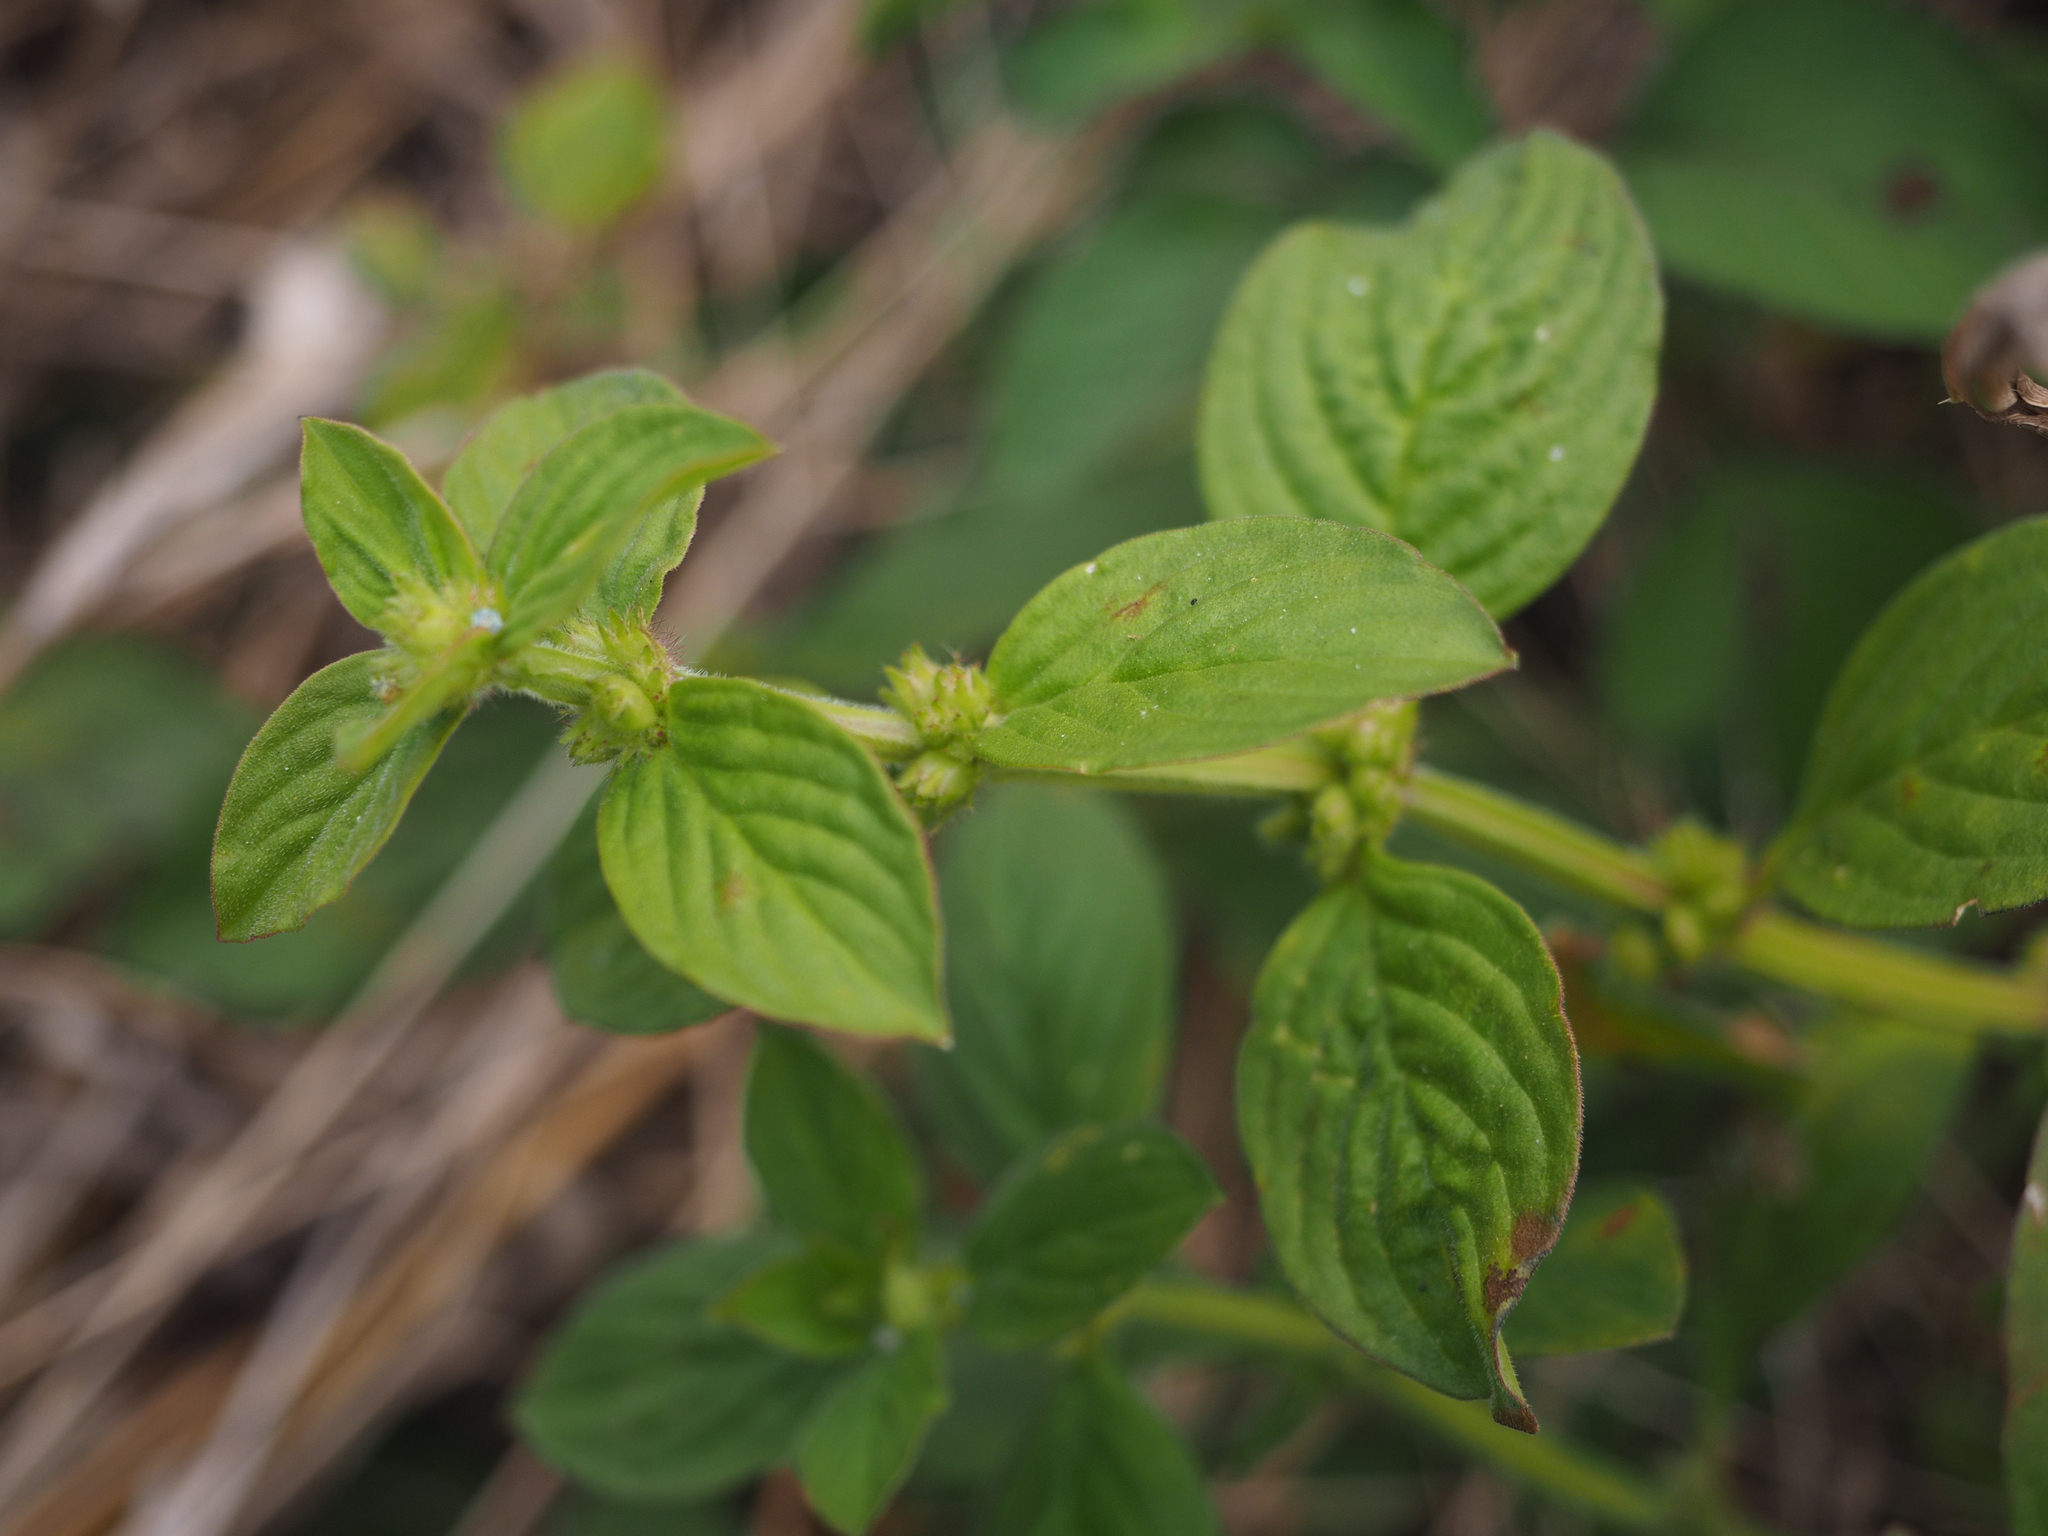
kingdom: Plantae
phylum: Tracheophyta
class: Magnoliopsida
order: Gentianales
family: Rubiaceae
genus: Spermacoce
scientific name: Spermacoce latifolia
